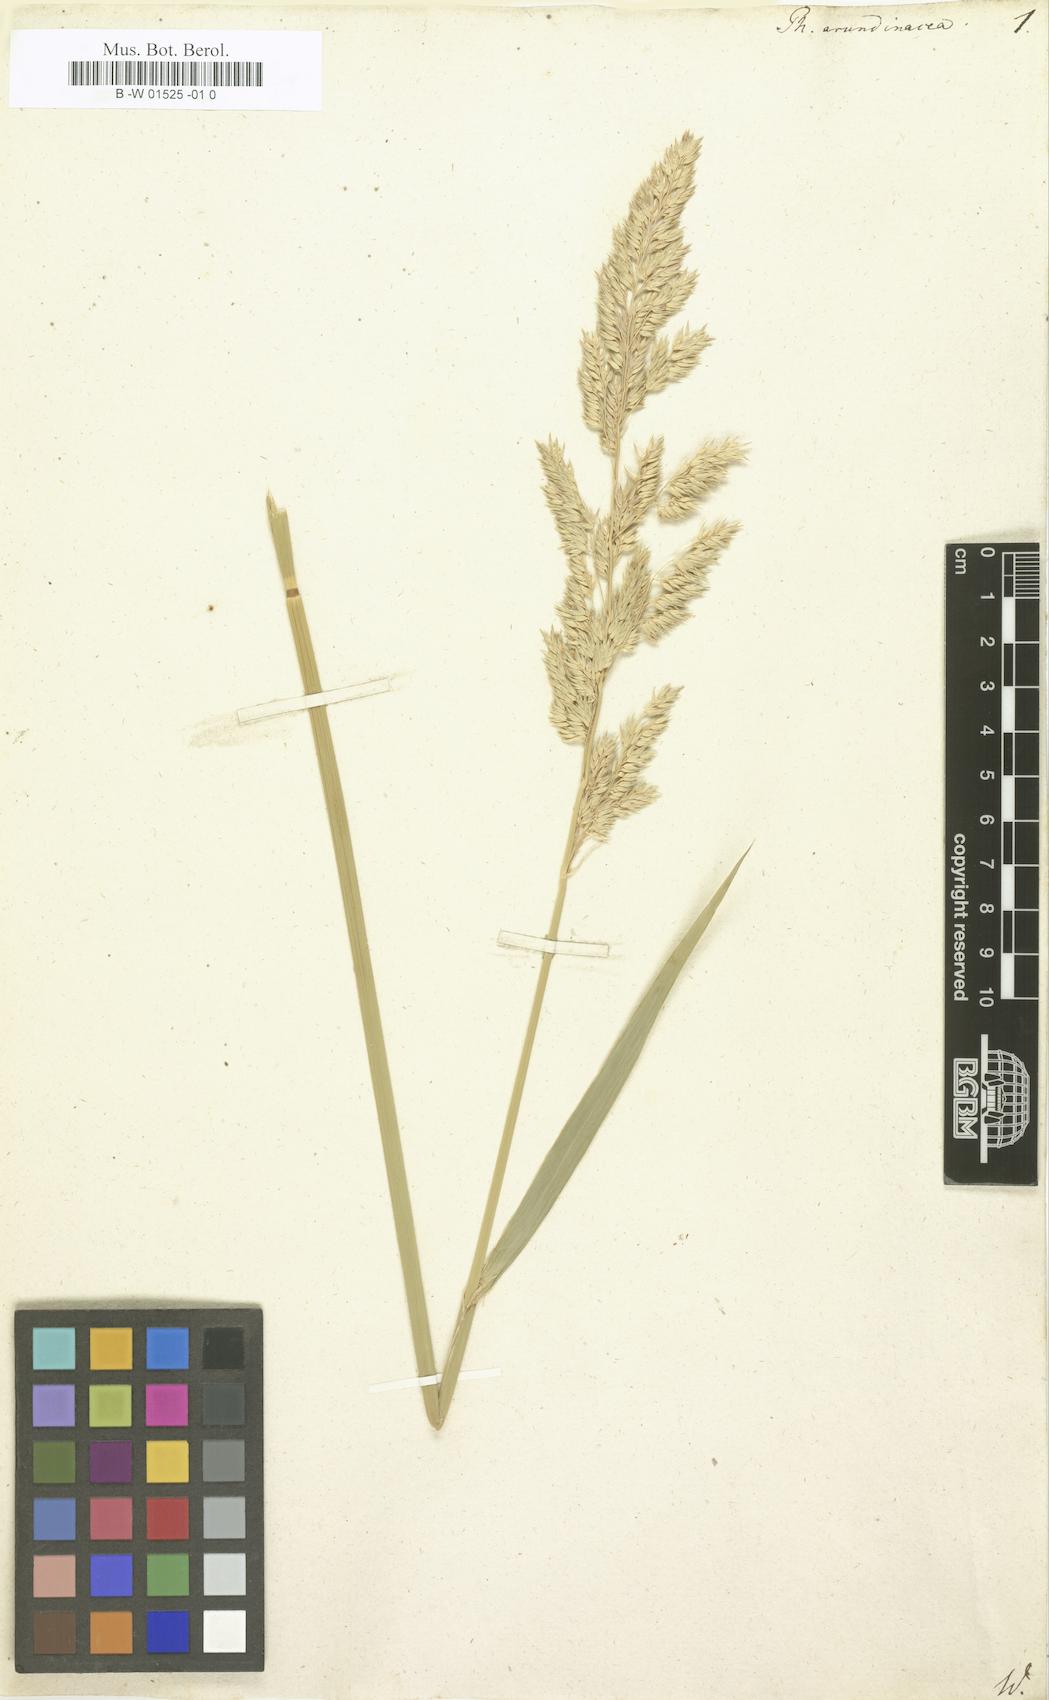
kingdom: Plantae
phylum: Tracheophyta
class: Liliopsida
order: Poales
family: Poaceae
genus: Phalaris
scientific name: Phalaris arundinacea
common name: Reed canary-grass
